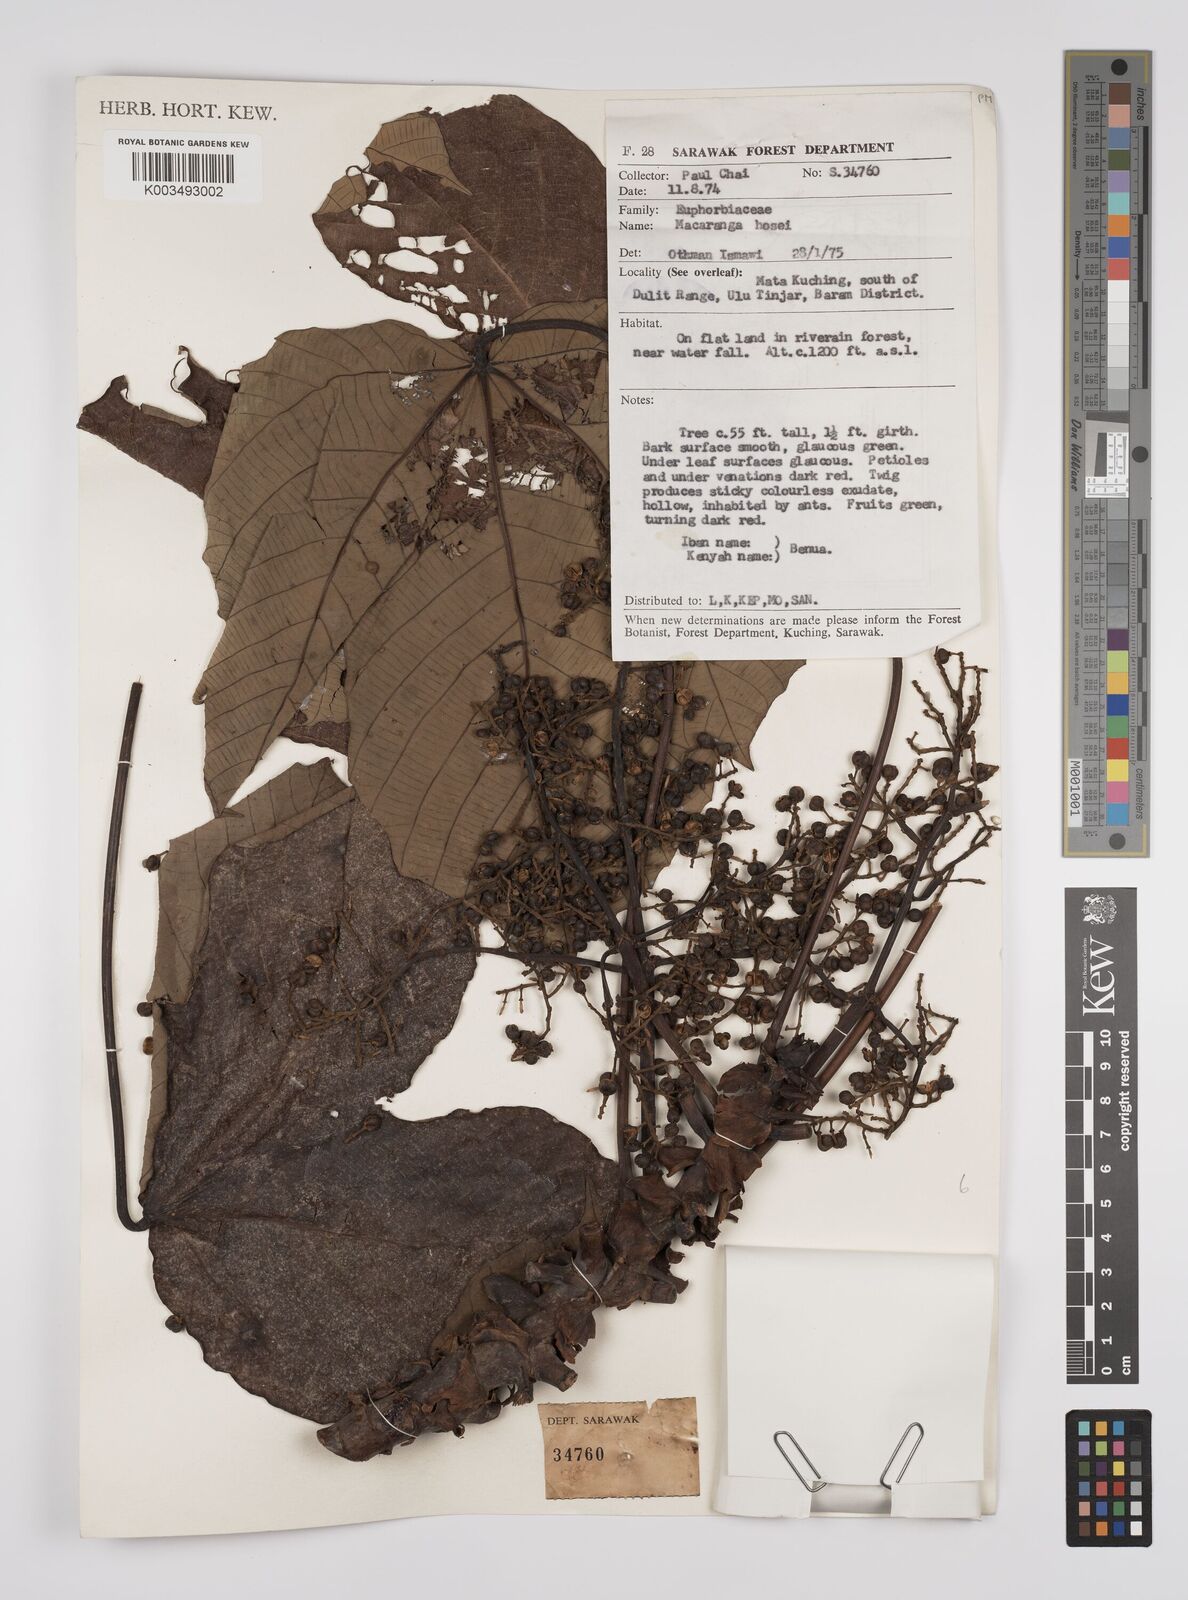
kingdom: Plantae
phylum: Tracheophyta
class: Magnoliopsida
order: Malpighiales
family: Euphorbiaceae
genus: Macaranga
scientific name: Macaranga hosei
